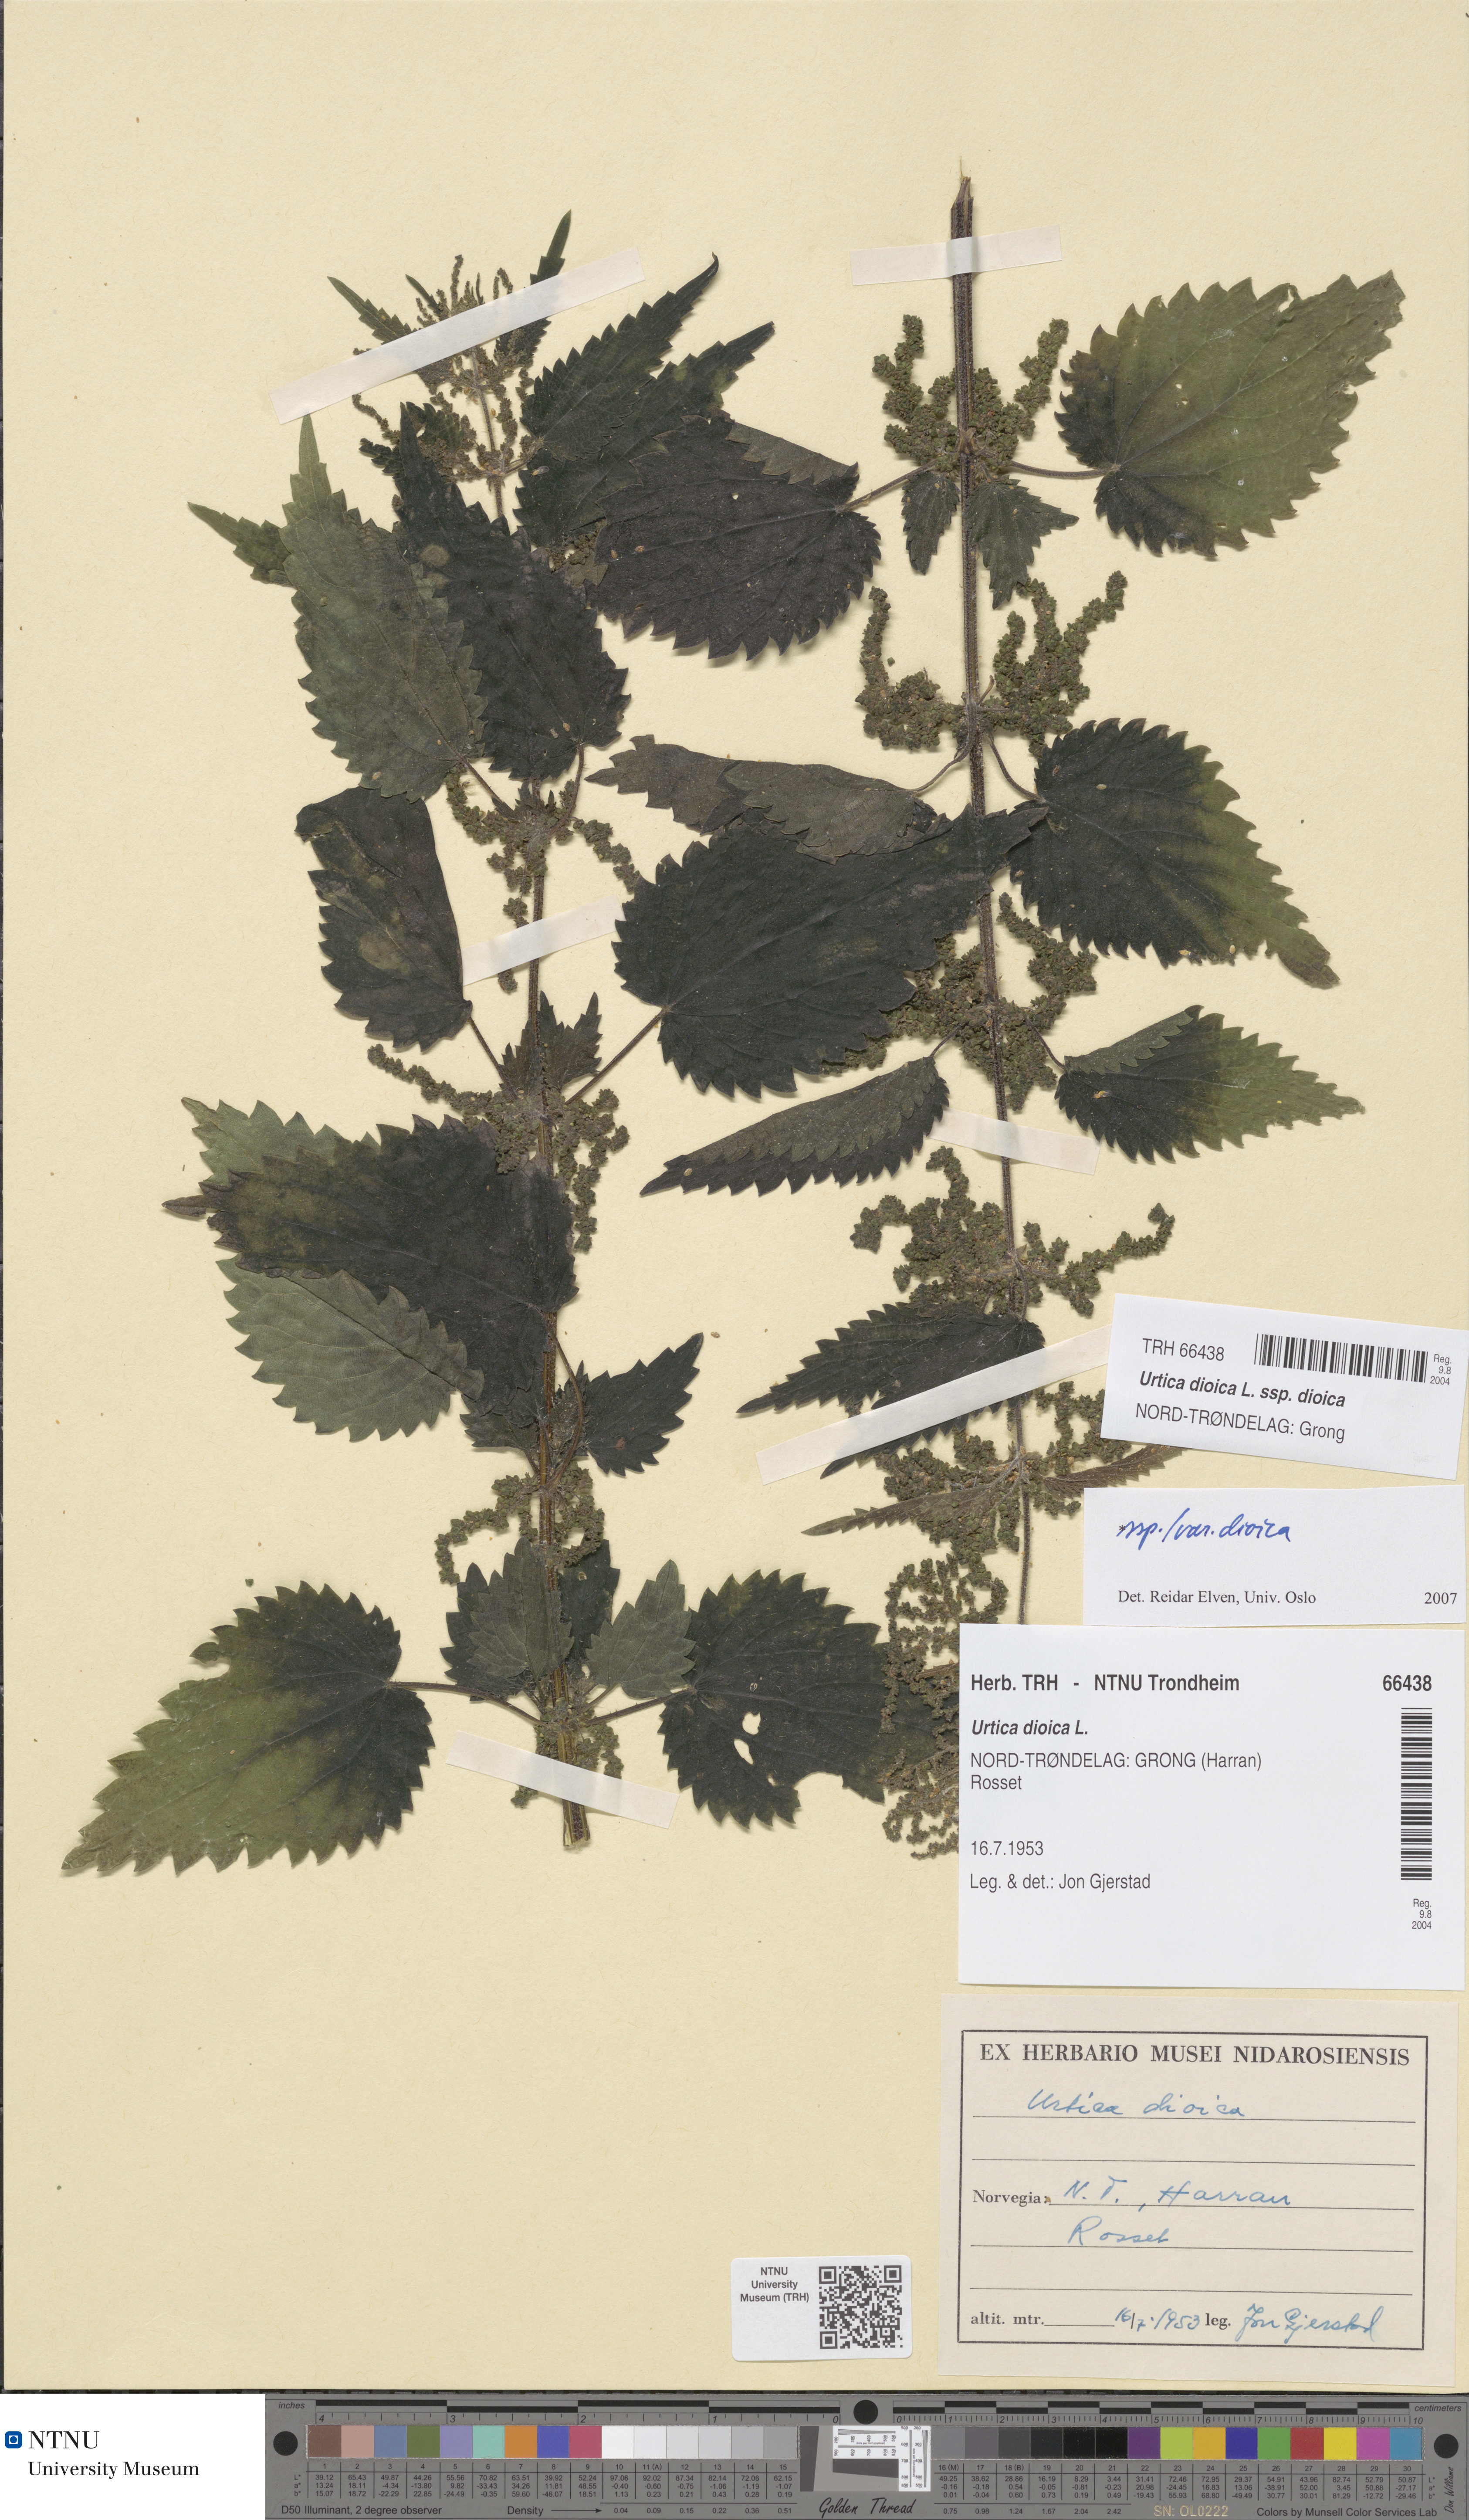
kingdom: Plantae
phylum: Tracheophyta
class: Magnoliopsida
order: Rosales
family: Urticaceae
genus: Urtica
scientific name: Urtica dioica
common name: Common nettle
